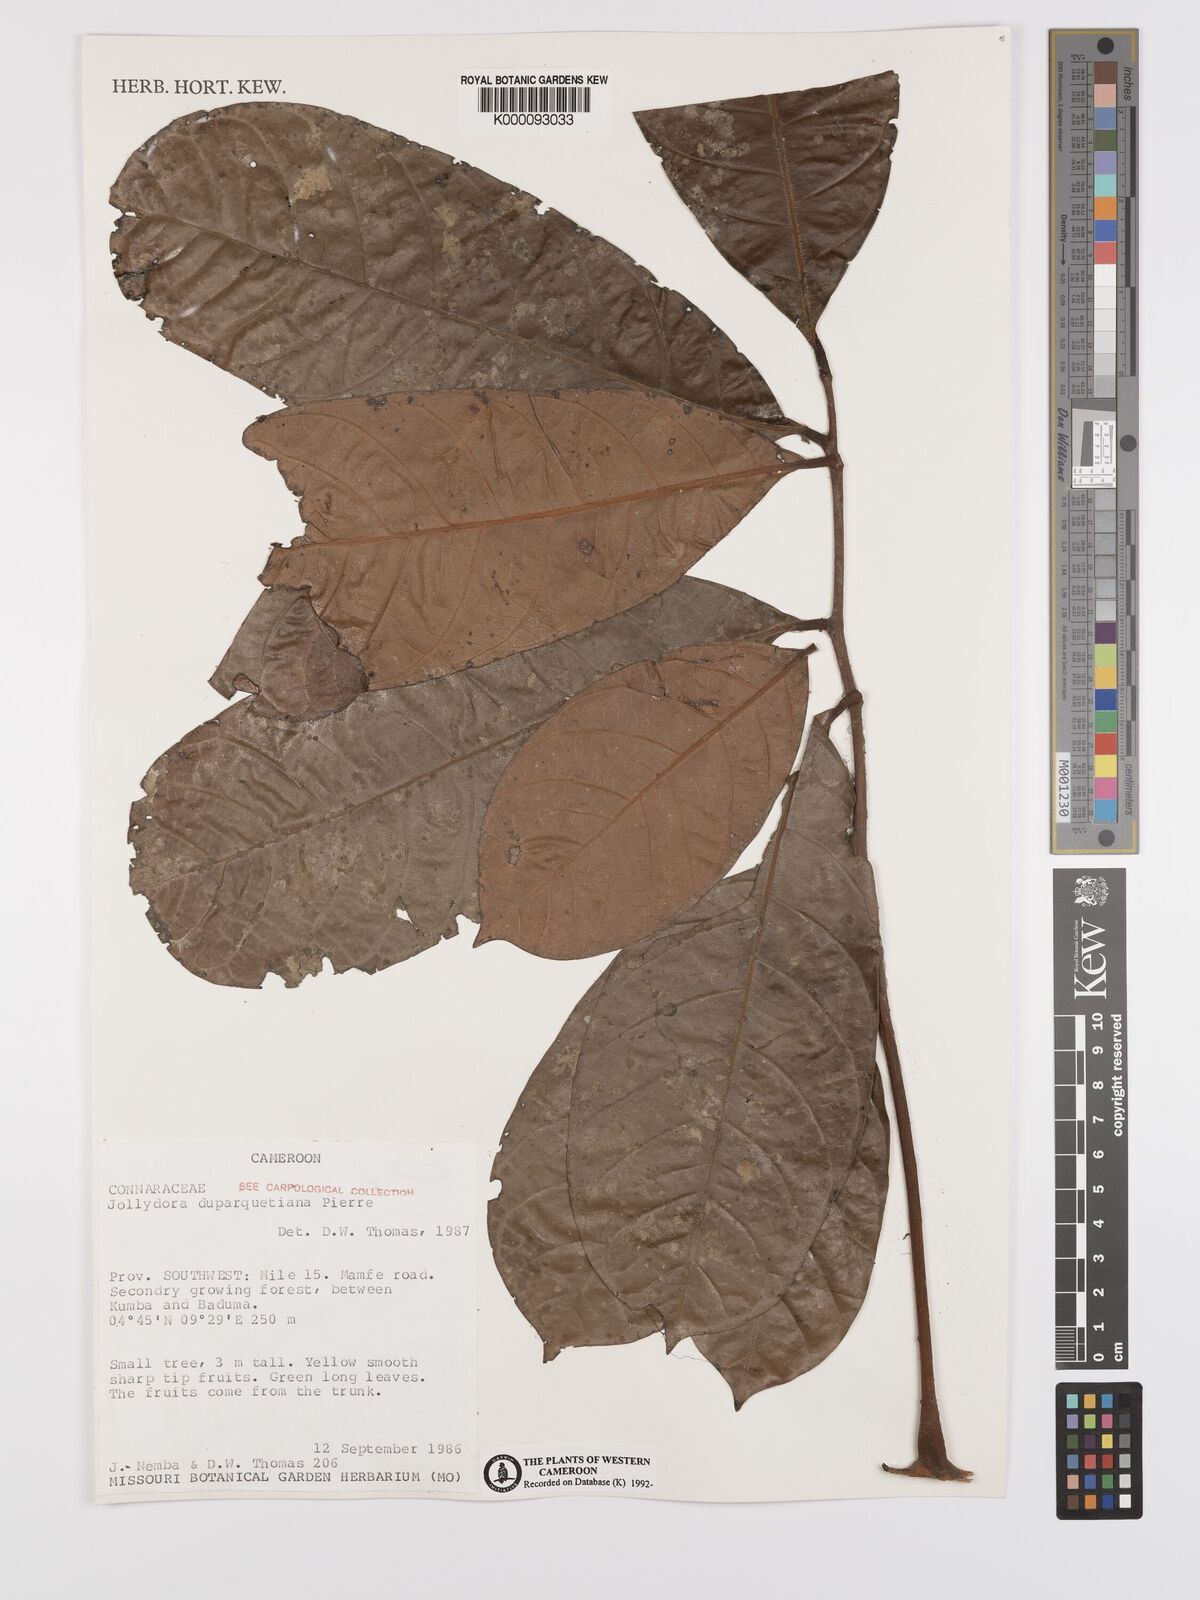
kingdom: Plantae
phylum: Tracheophyta
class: Magnoliopsida
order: Oxalidales
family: Connaraceae
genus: Jollydora
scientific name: Jollydora duparquetiana
